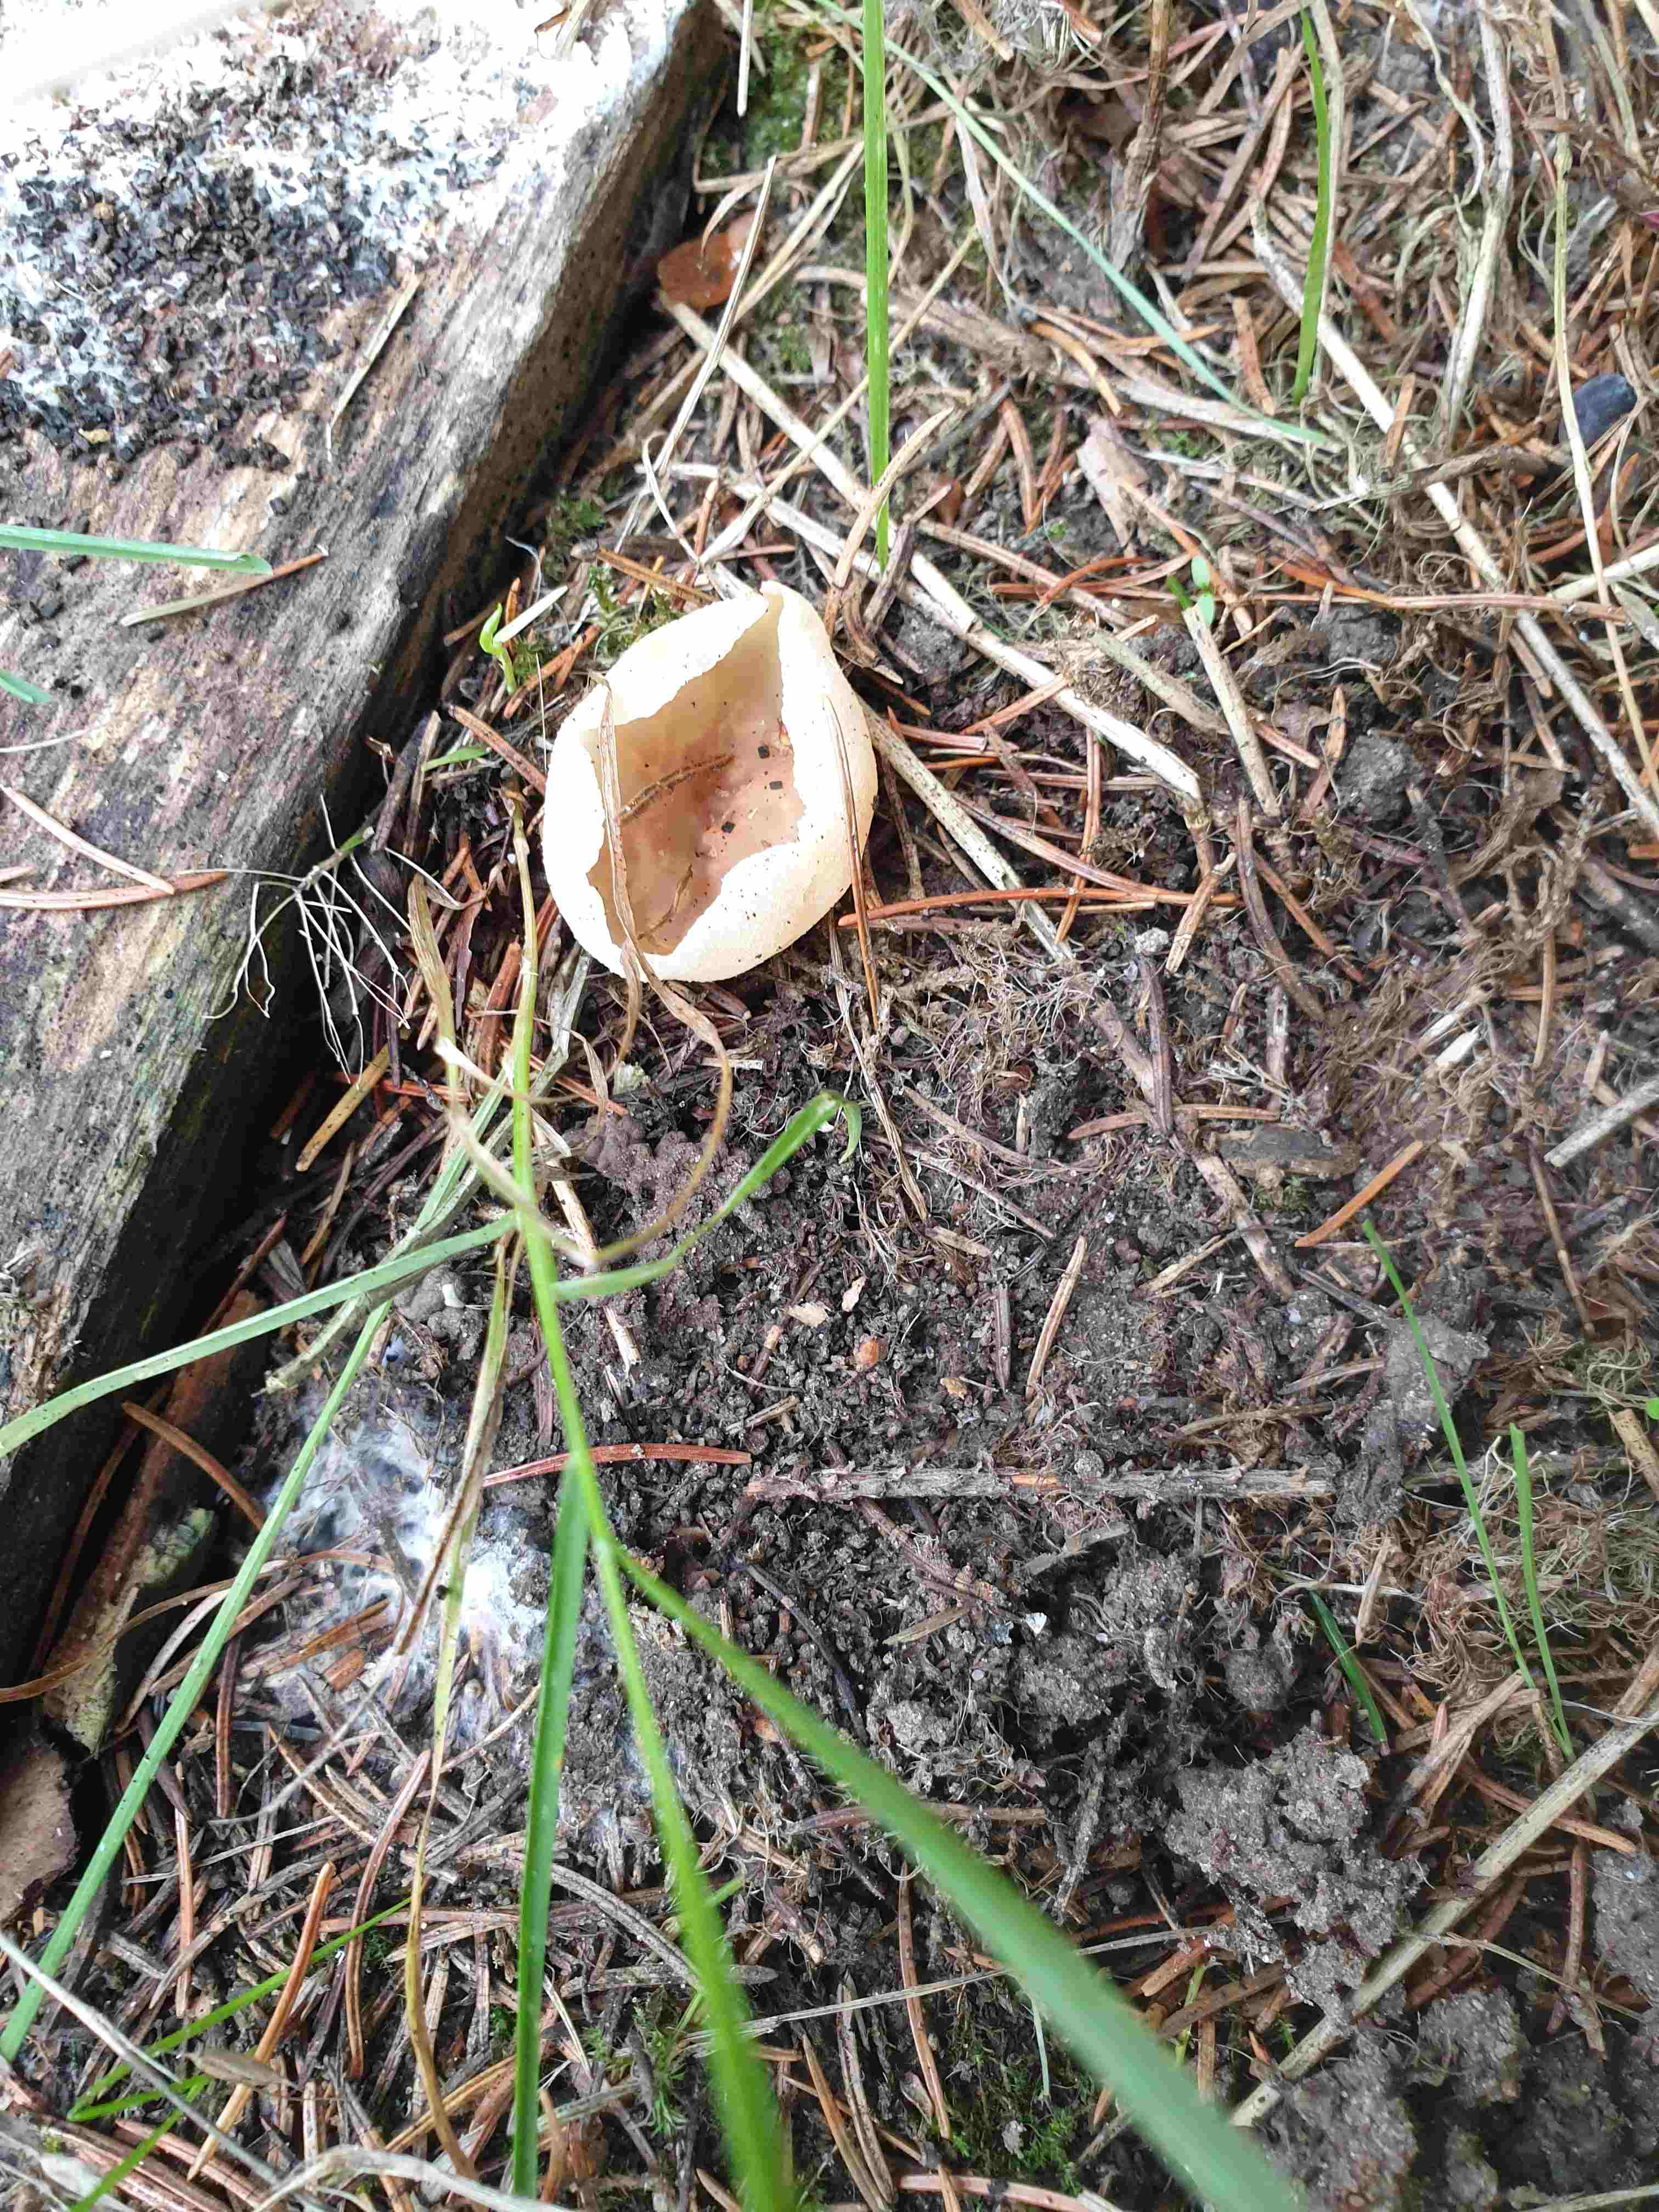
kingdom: Fungi
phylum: Ascomycota
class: Pezizomycetes
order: Pezizales
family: Pezizaceae
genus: Peziza
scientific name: Peziza
